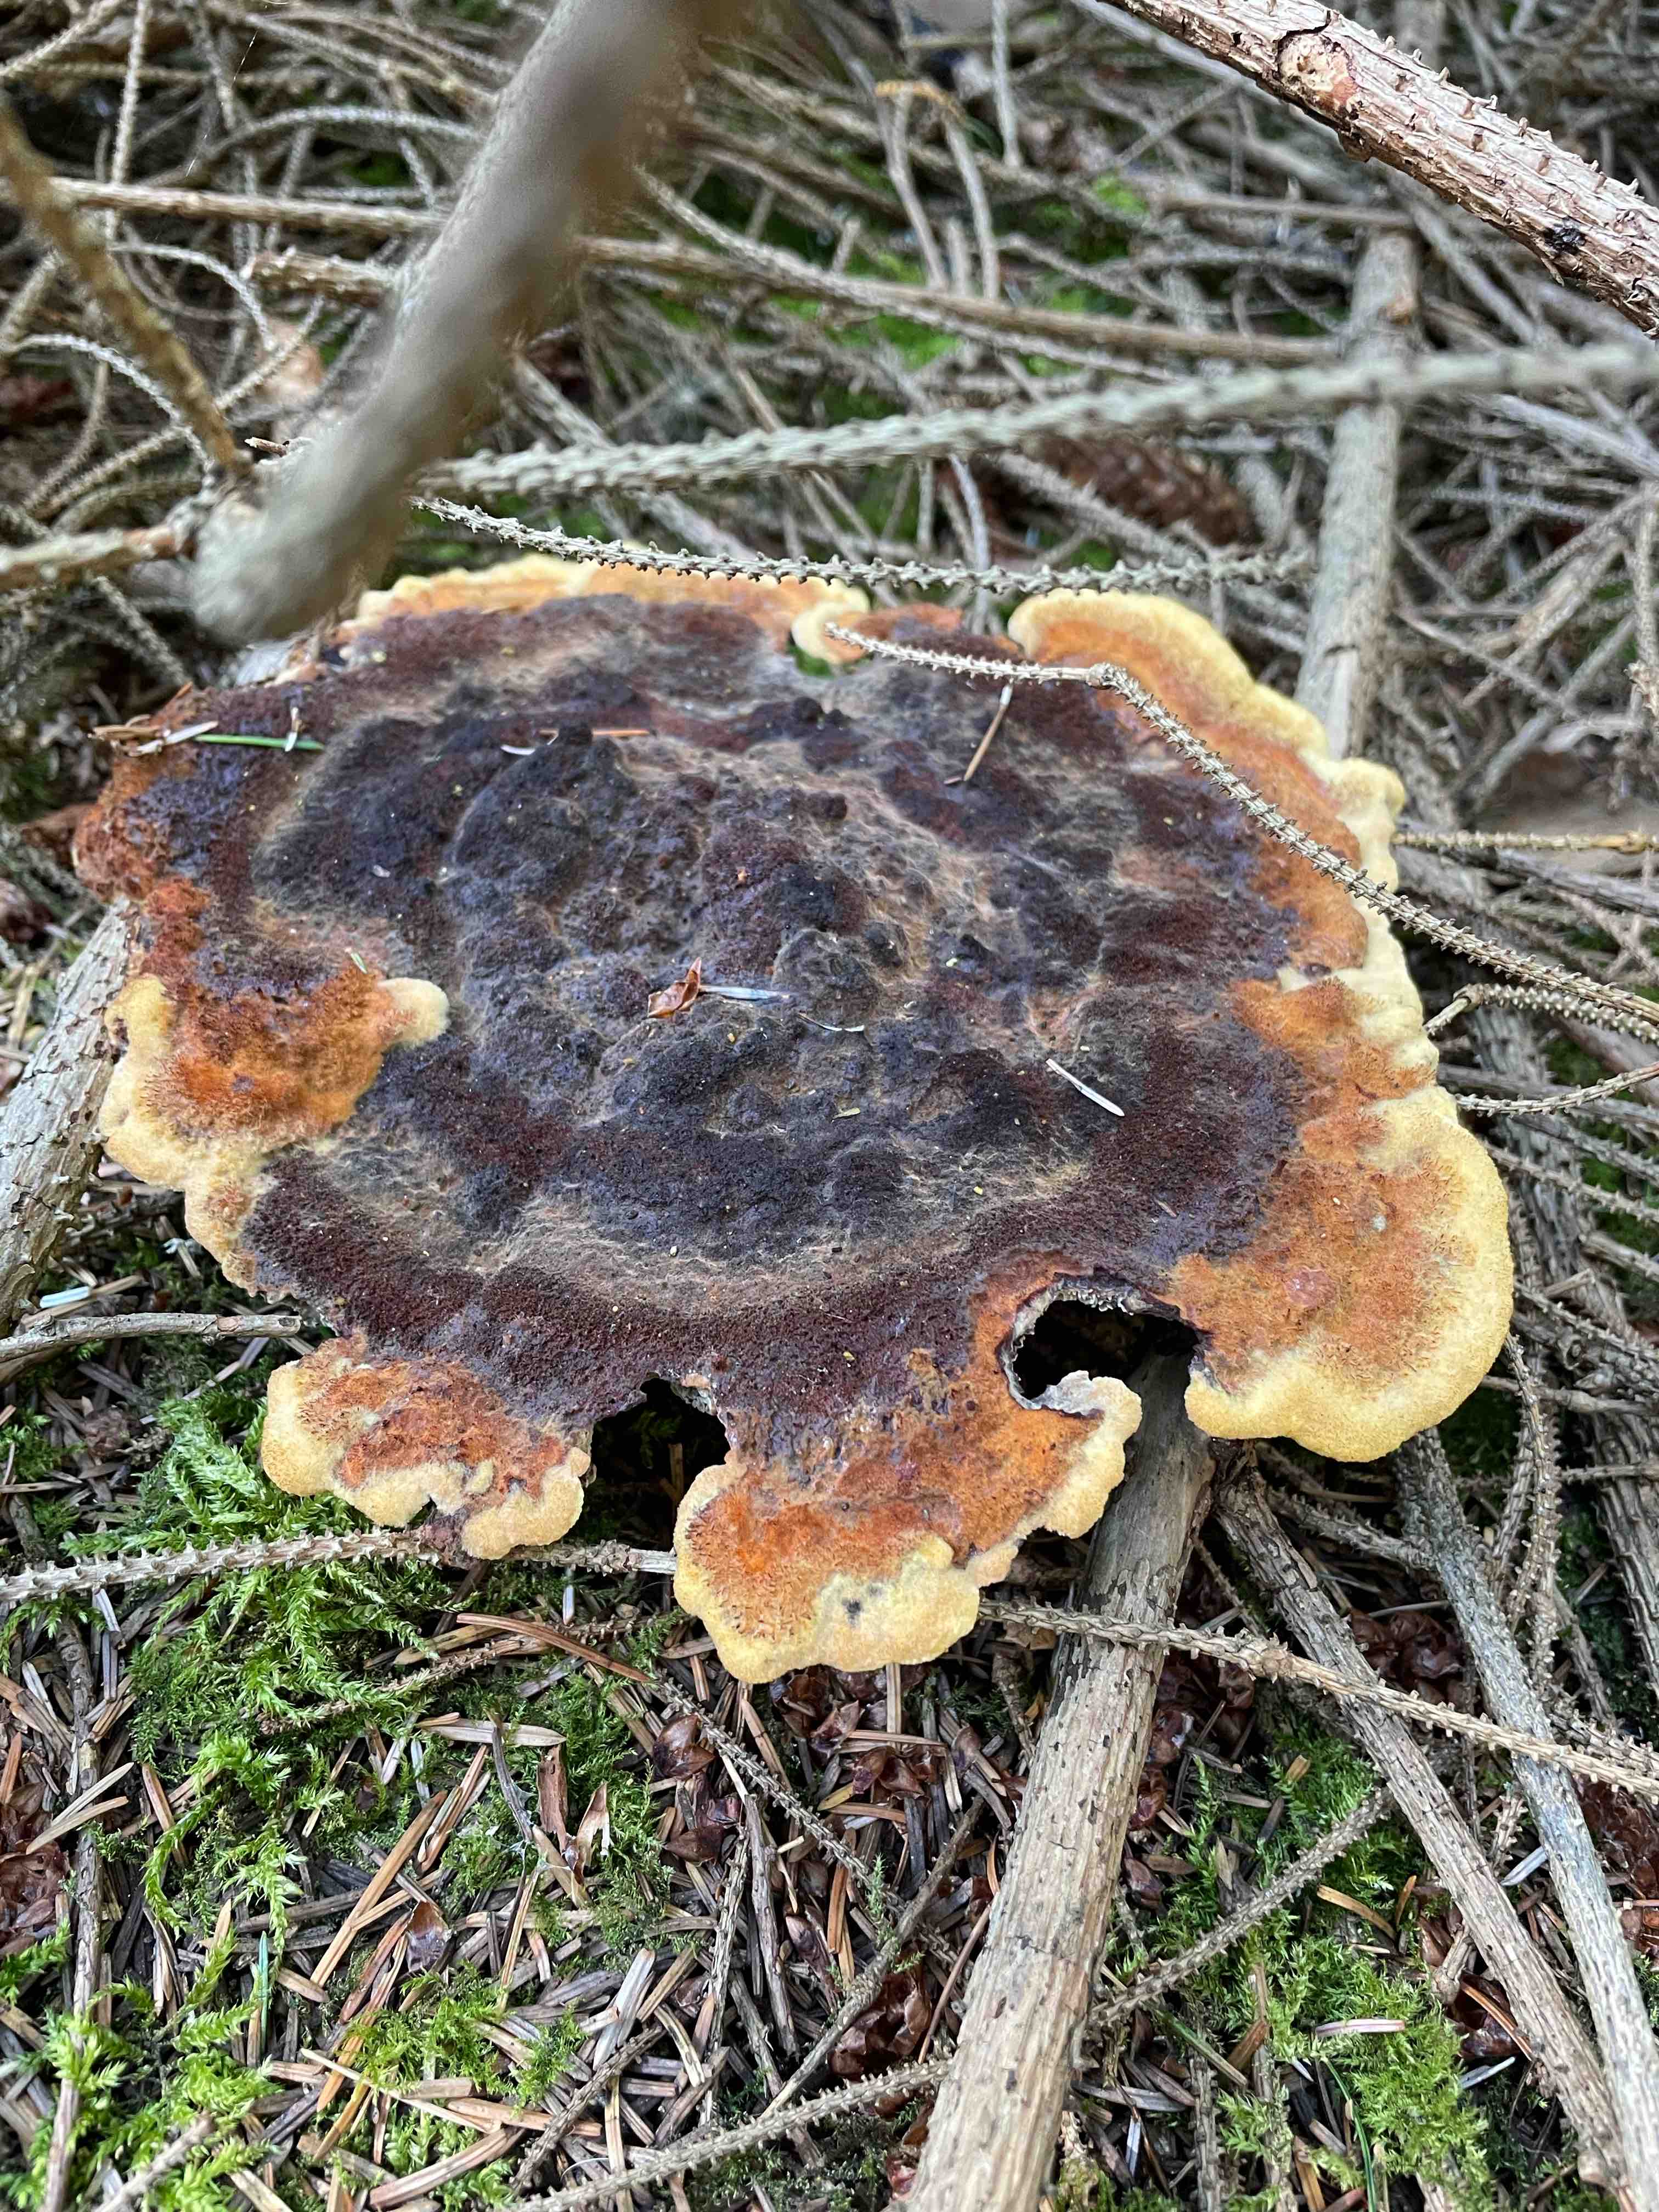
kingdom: Fungi
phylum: Basidiomycota
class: Agaricomycetes
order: Polyporales
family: Laetiporaceae
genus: Phaeolus
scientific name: Phaeolus schweinitzii
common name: brunporesvamp
